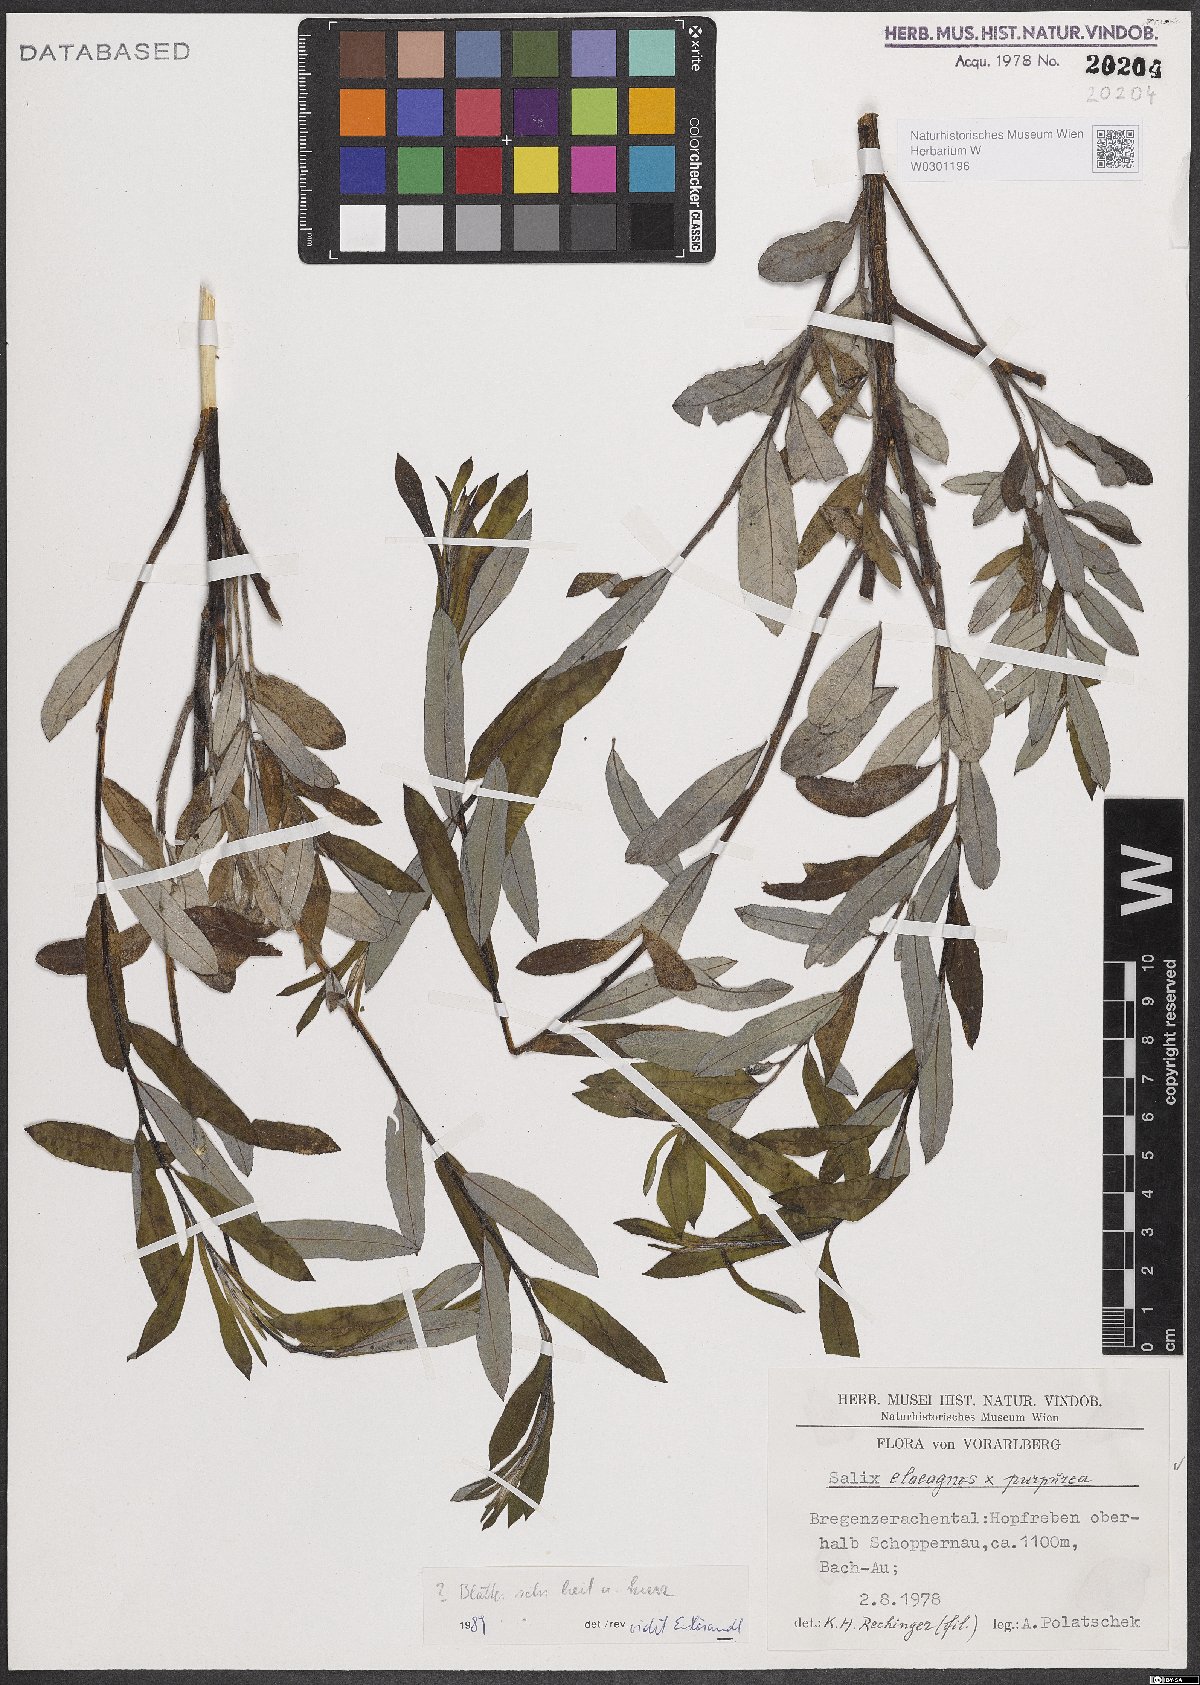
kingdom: Plantae
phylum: Tracheophyta
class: Magnoliopsida
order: Malpighiales
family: Salicaceae
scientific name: Salicaceae
